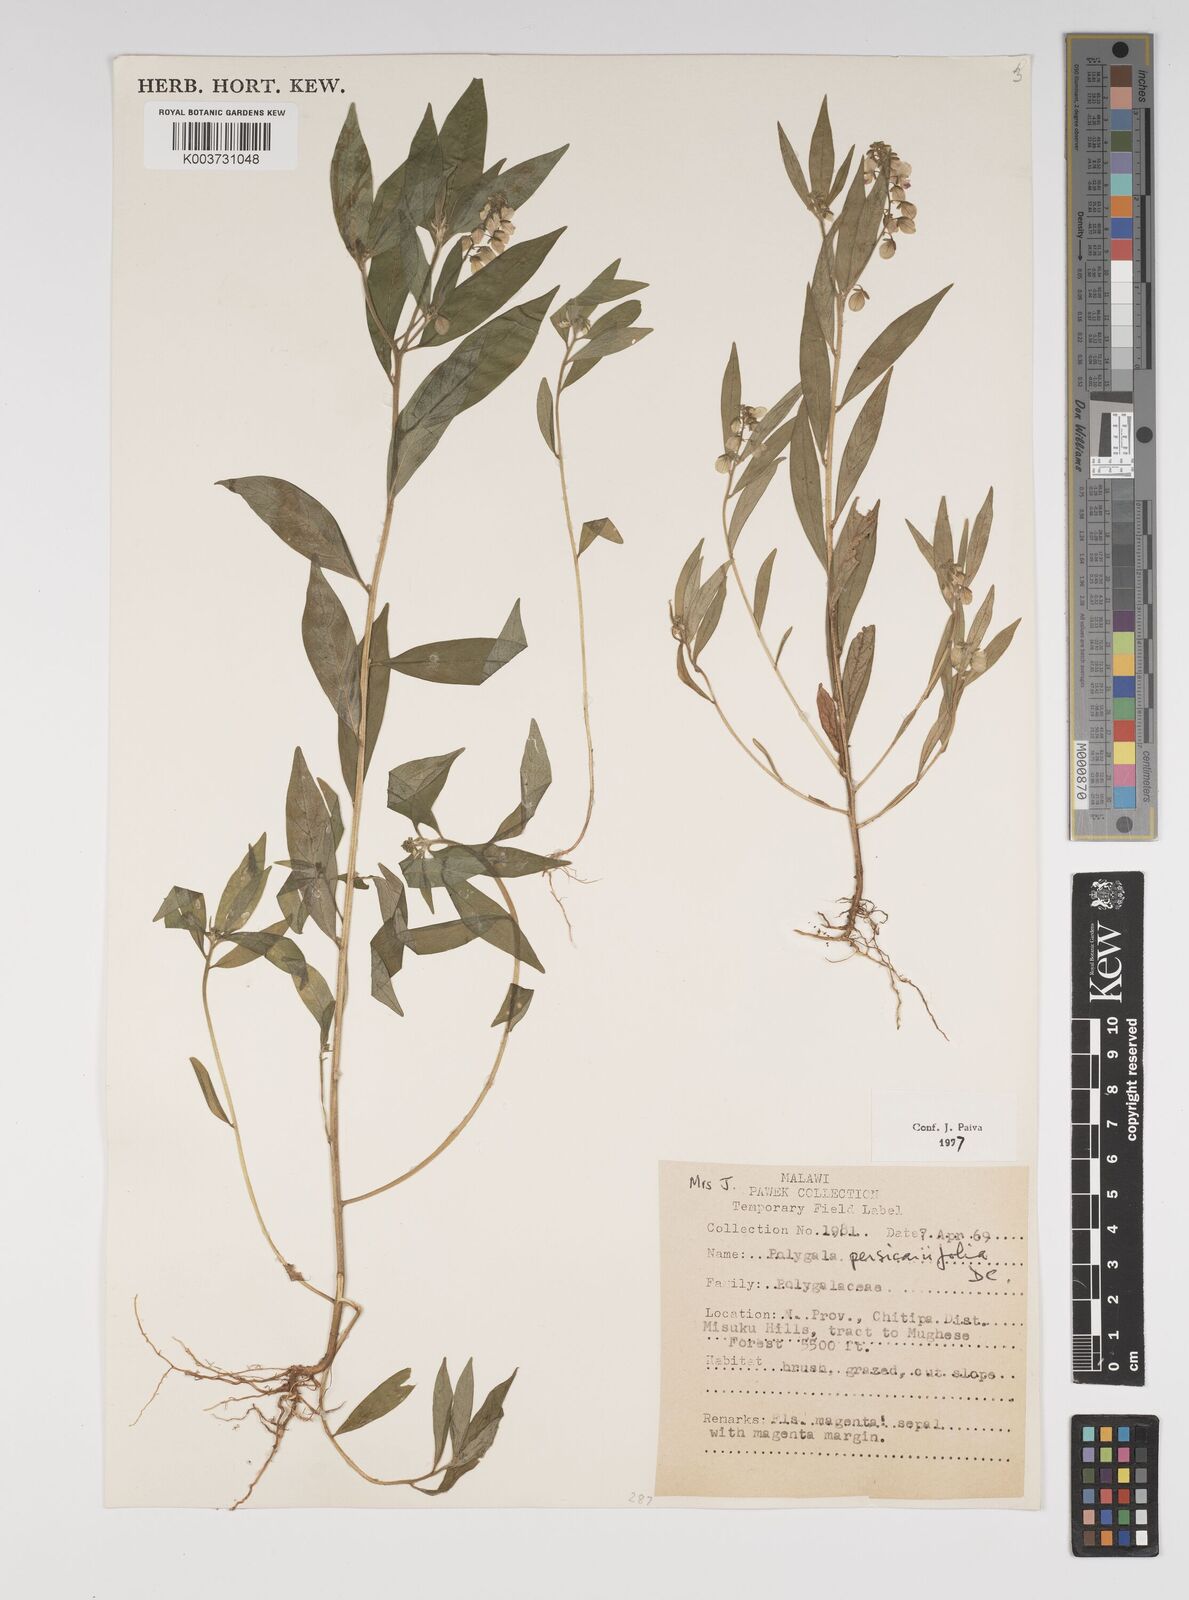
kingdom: Plantae
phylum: Tracheophyta
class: Magnoliopsida
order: Fabales
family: Polygalaceae
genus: Polygala
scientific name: Polygala persicariifolia
